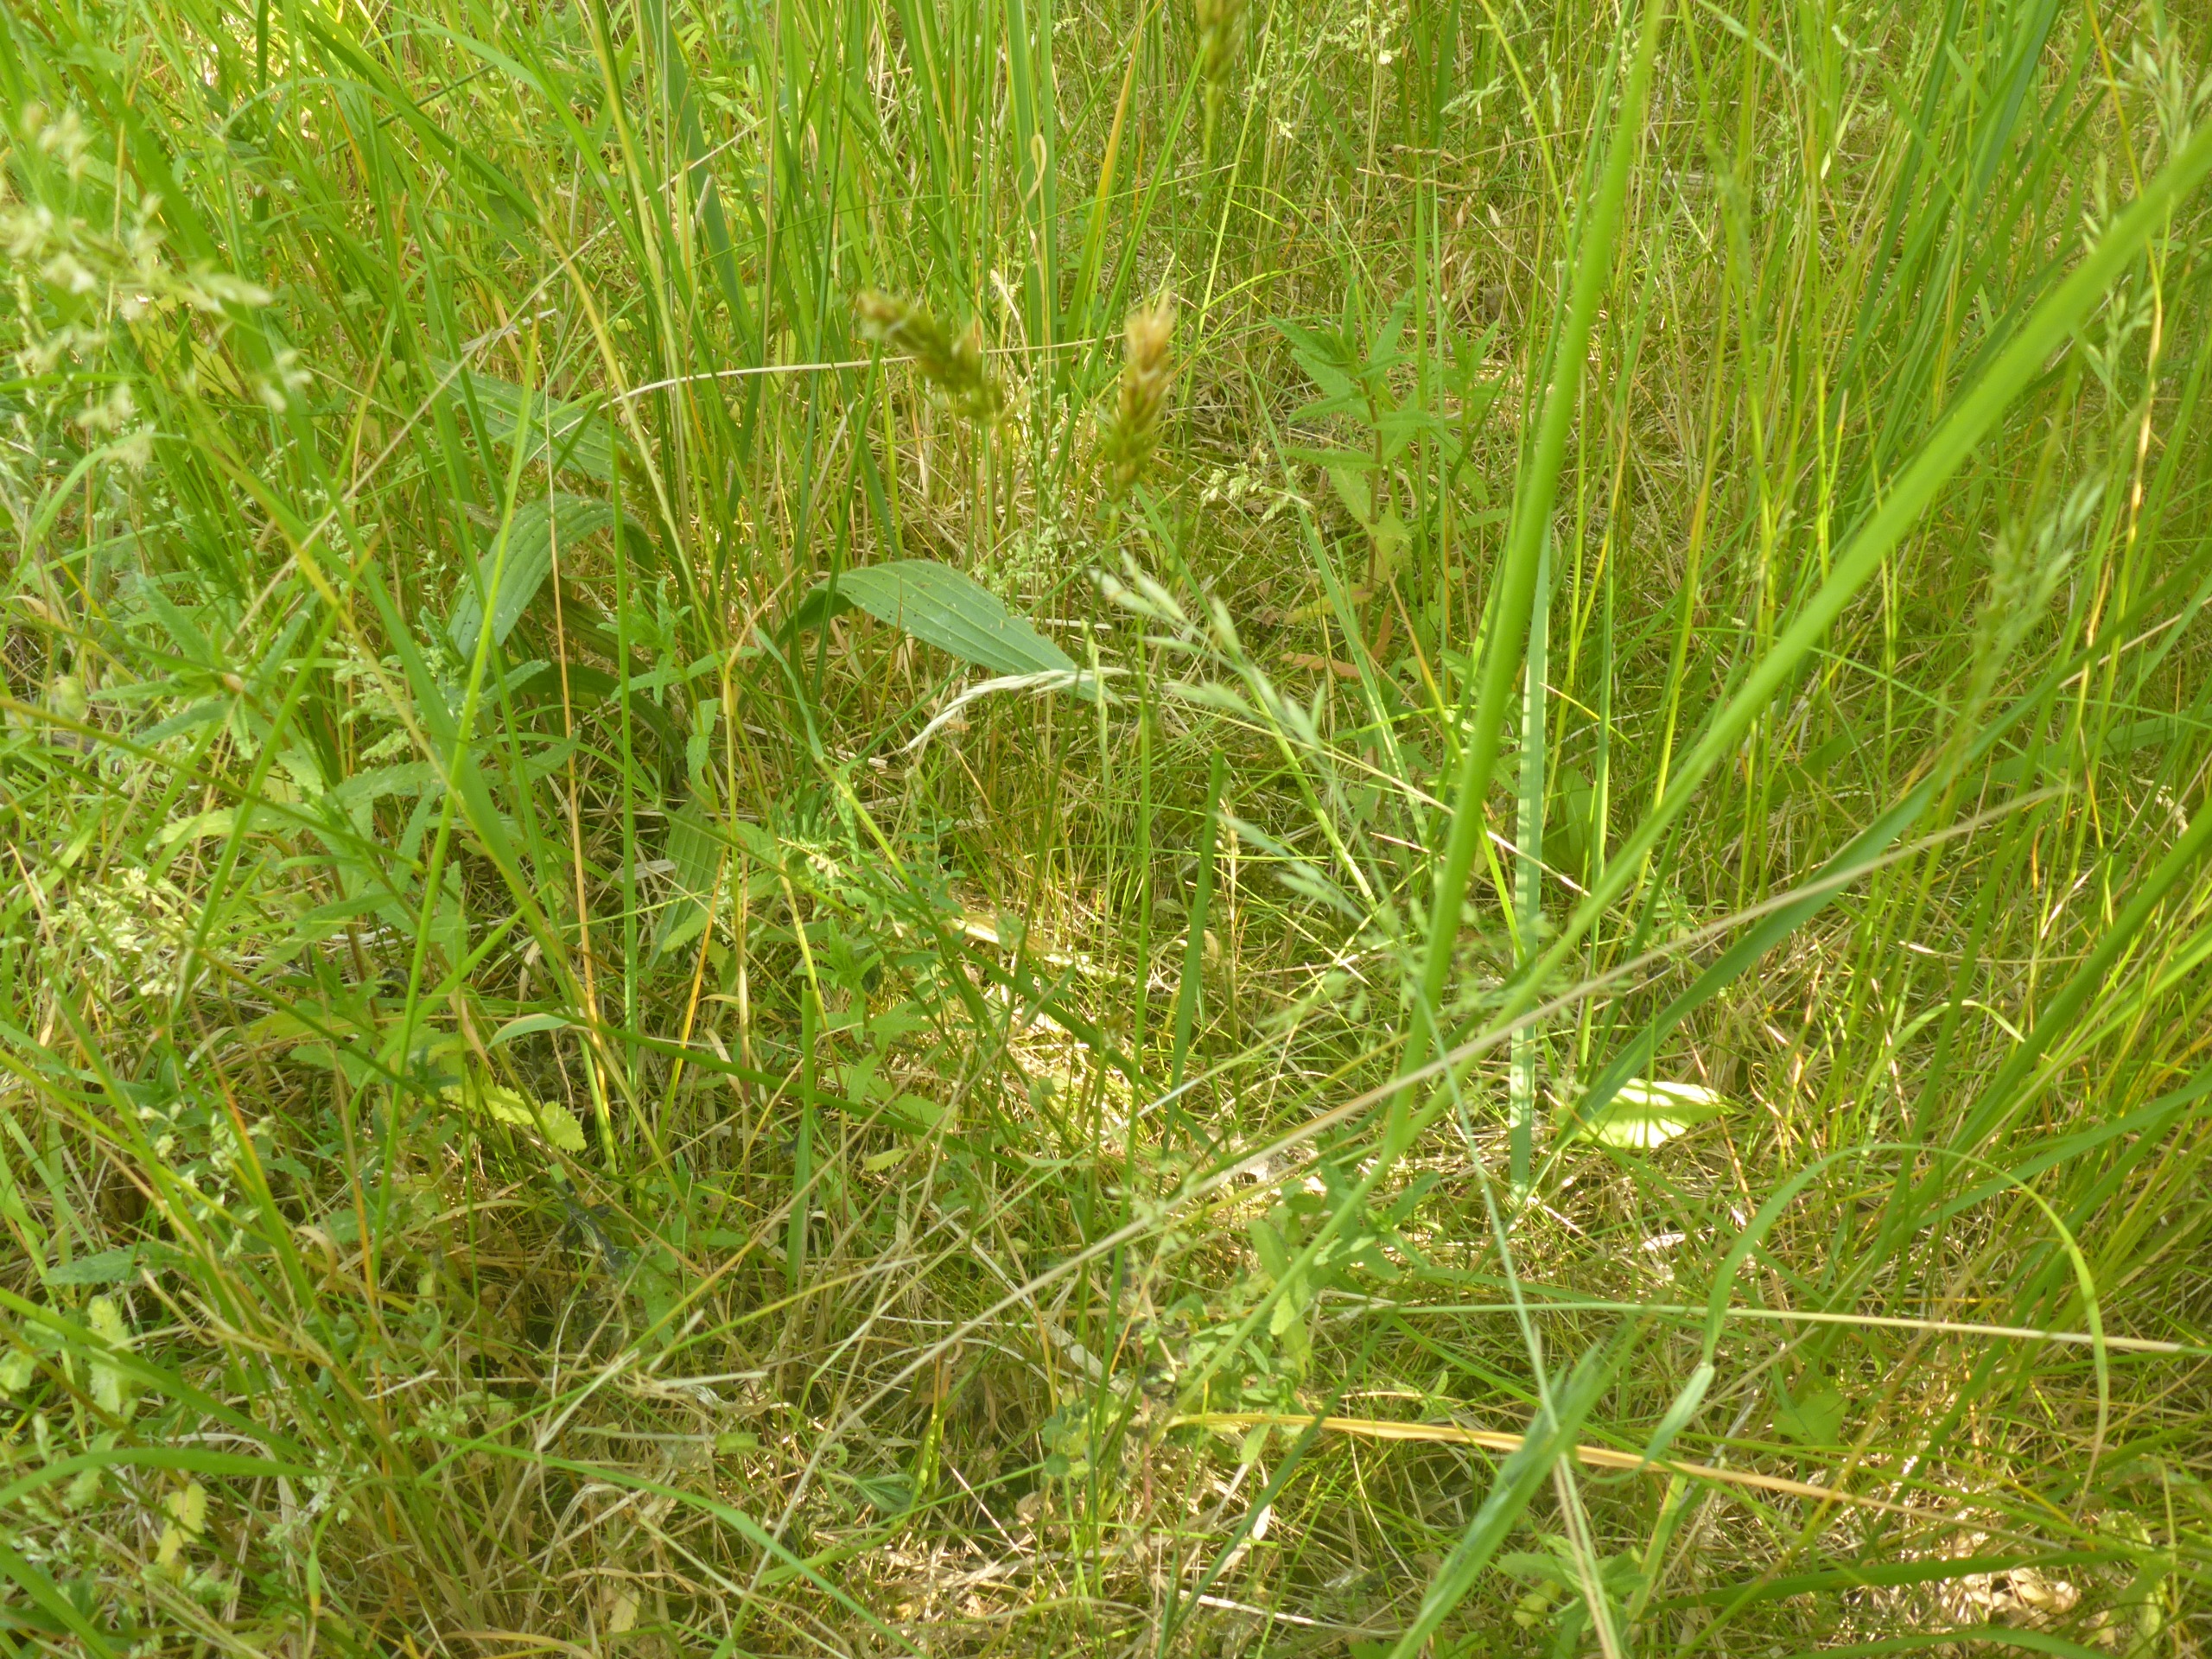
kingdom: Plantae
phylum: Tracheophyta
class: Liliopsida
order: Poales
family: Poaceae
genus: Anthoxanthum
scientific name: Anthoxanthum odoratum
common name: Vellugtende gulaks
